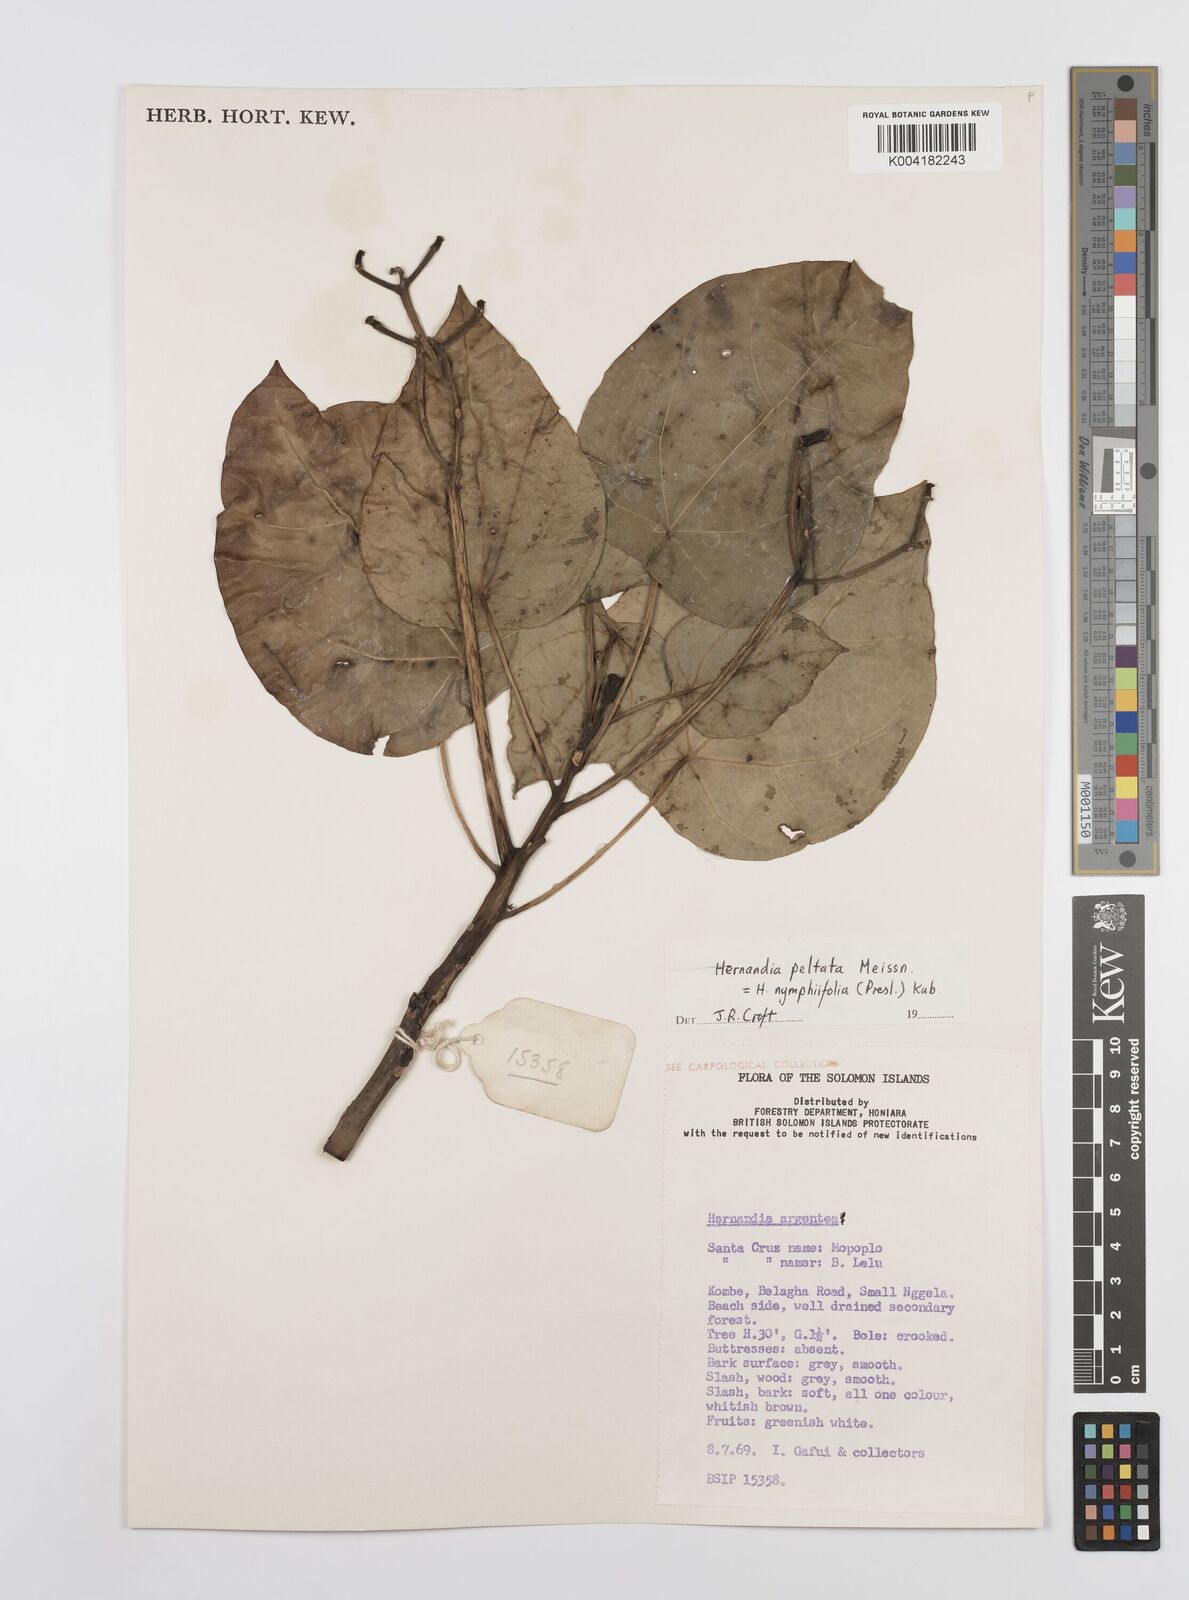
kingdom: Plantae
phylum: Tracheophyta
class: Magnoliopsida
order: Laurales
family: Hernandiaceae
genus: Hernandia
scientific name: Hernandia nymphaeifolia
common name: Sea hearse
